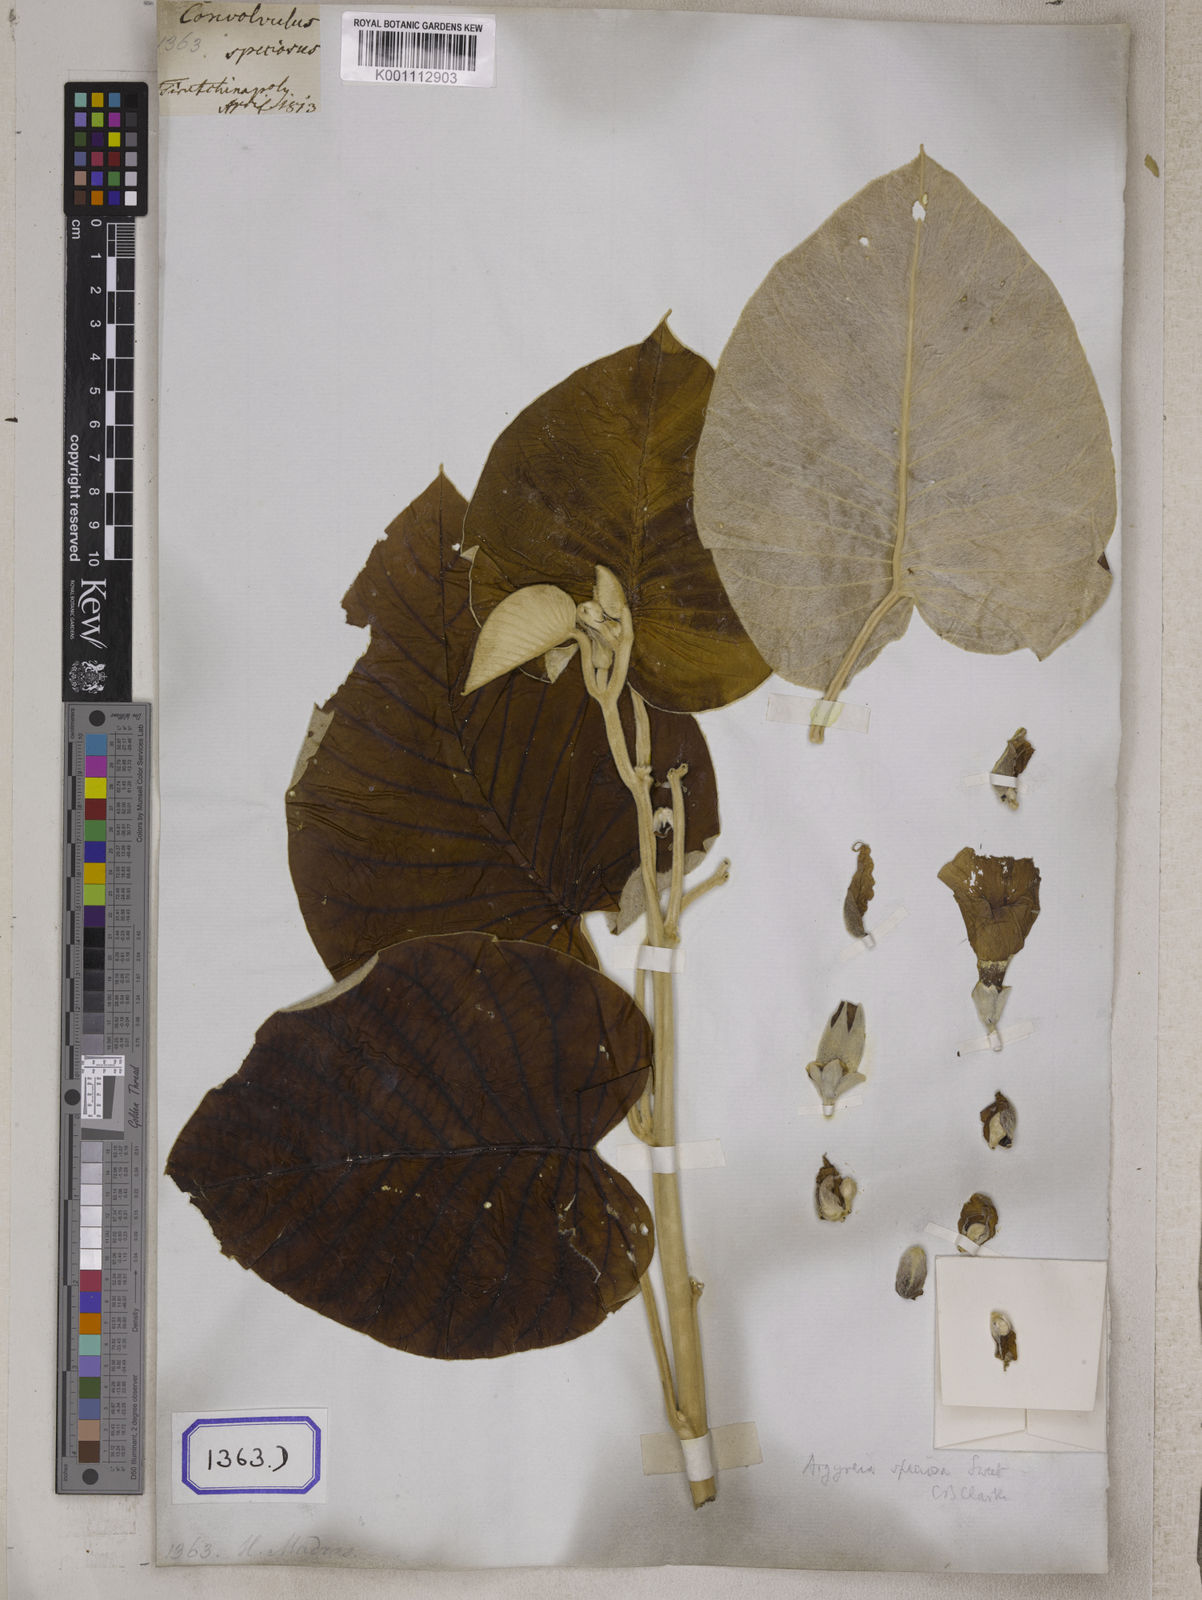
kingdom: Plantae
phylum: Tracheophyta
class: Magnoliopsida
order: Solanales
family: Convolvulaceae
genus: Convolvulus
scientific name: Convolvulus
